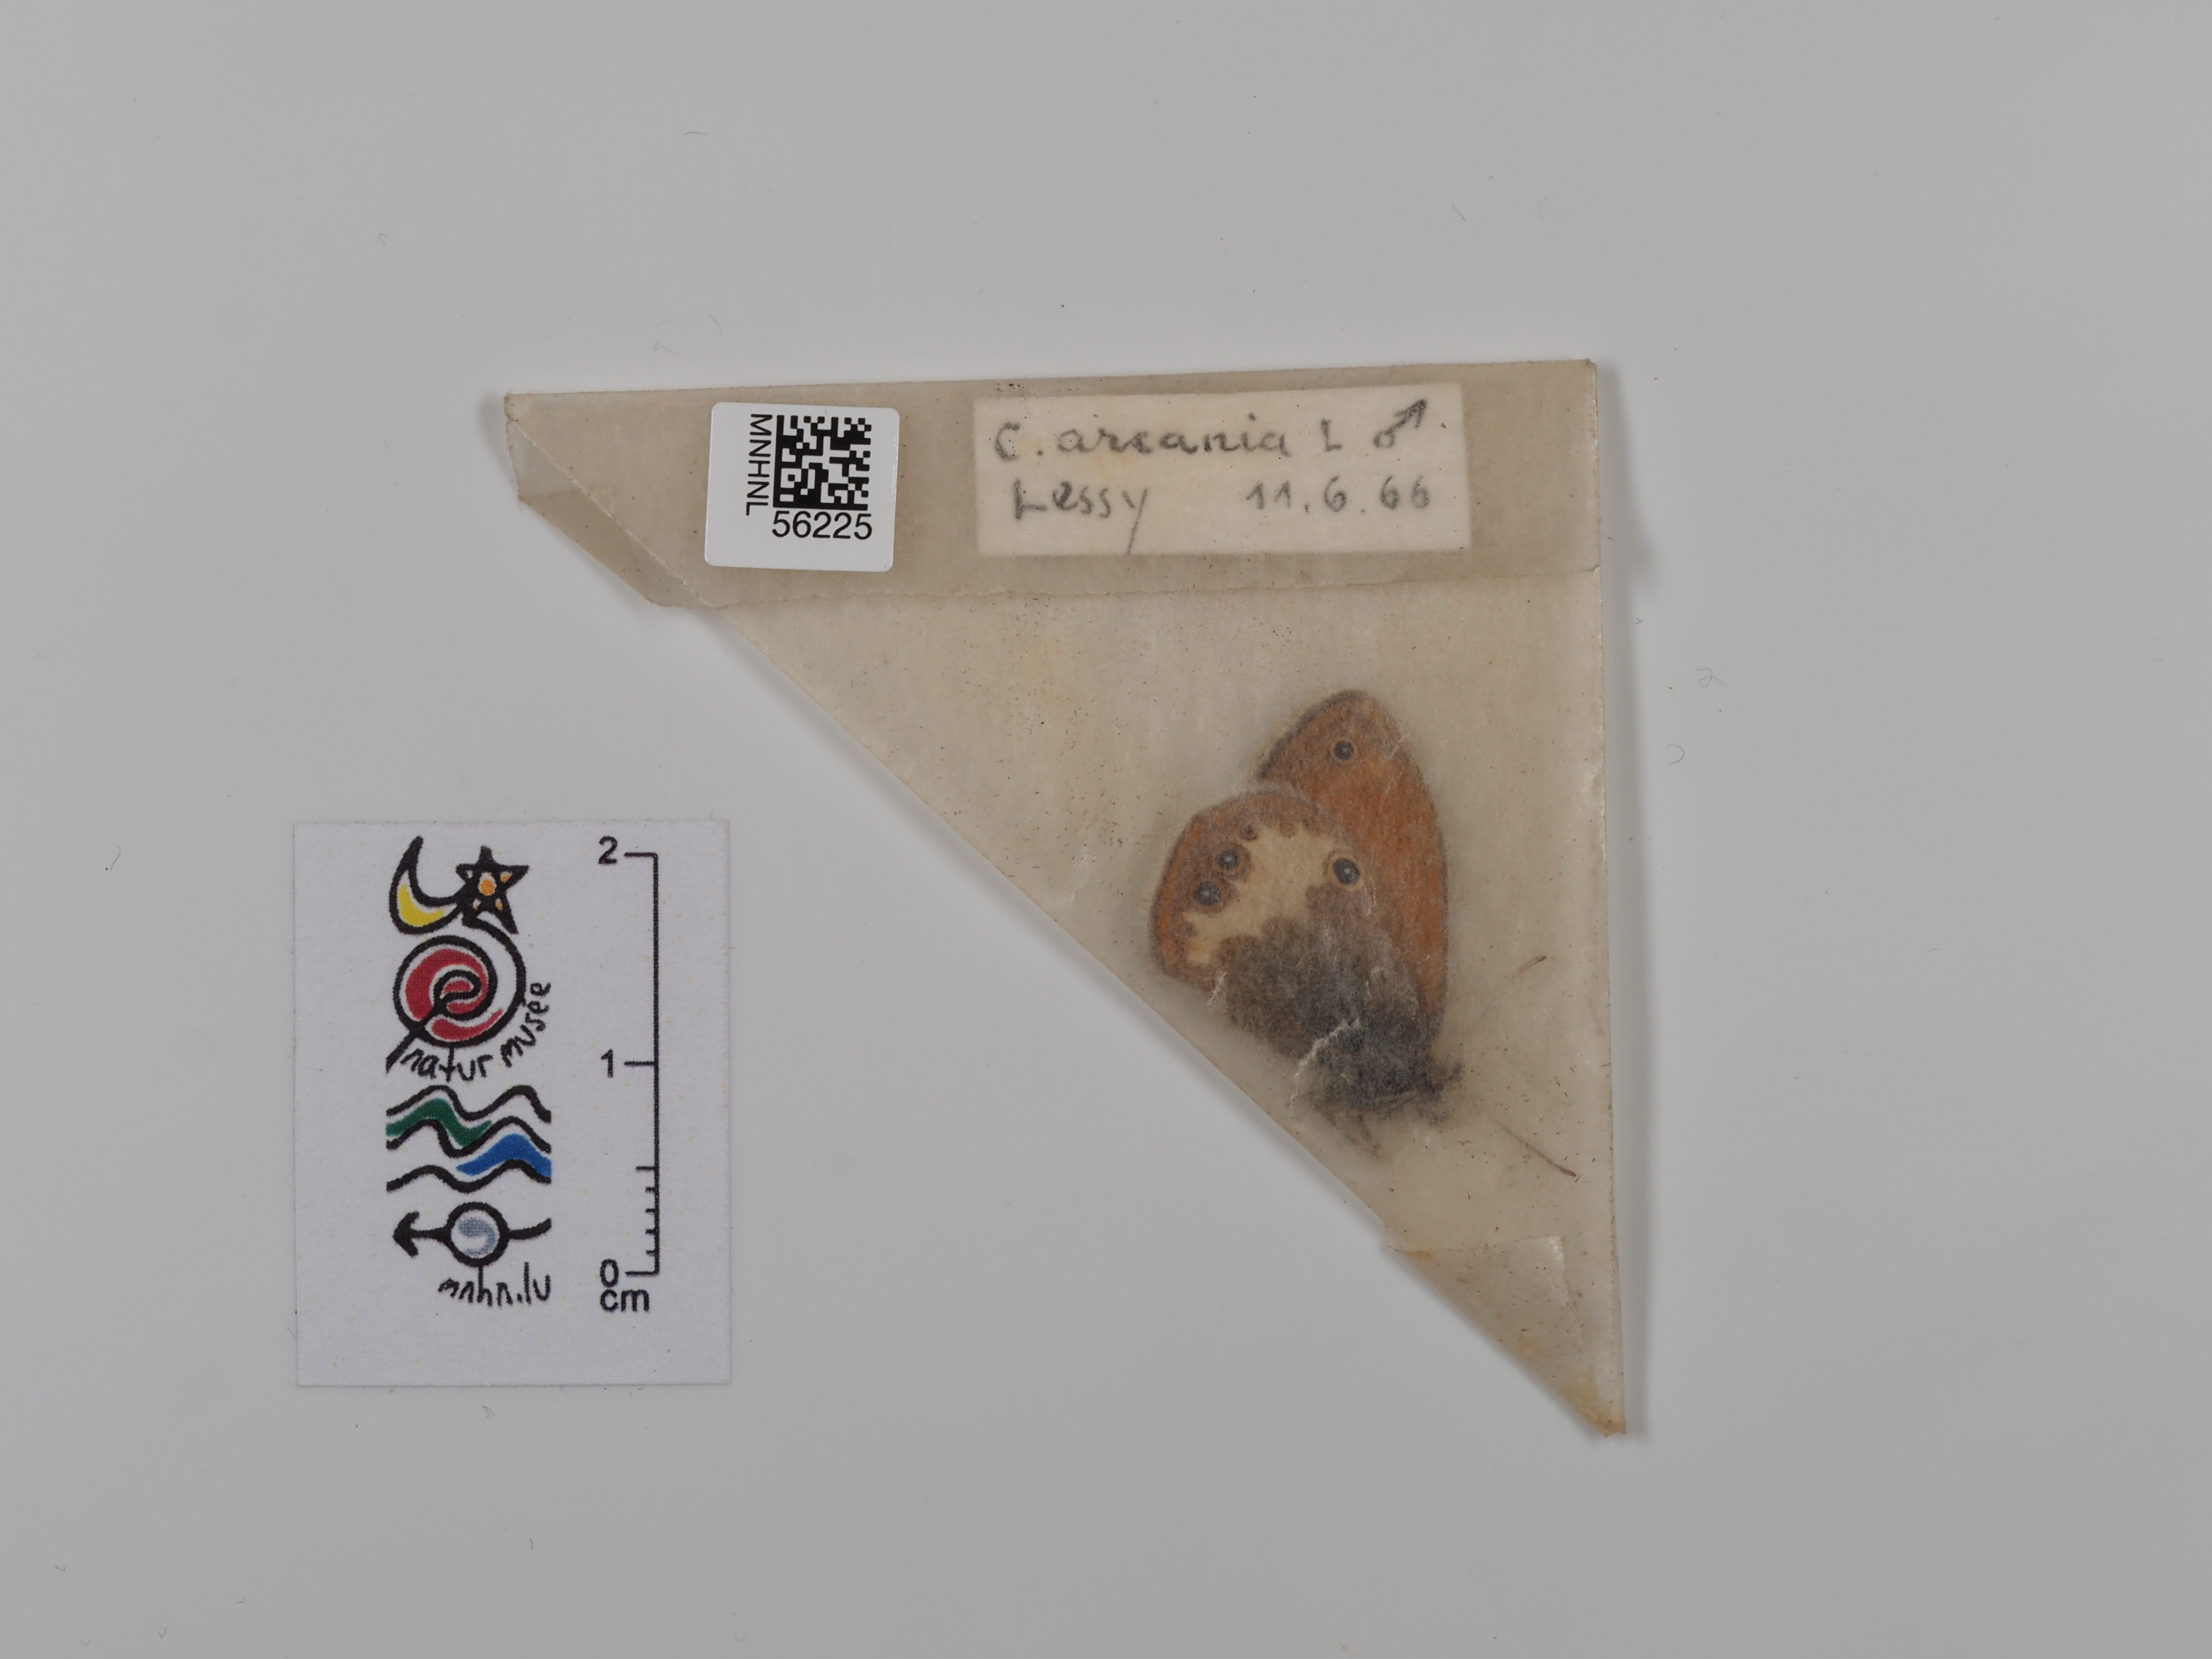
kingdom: Animalia
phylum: Arthropoda
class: Insecta
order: Lepidoptera
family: Nymphalidae
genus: Coenonympha
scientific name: Coenonympha arcania
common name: Pearly heath
